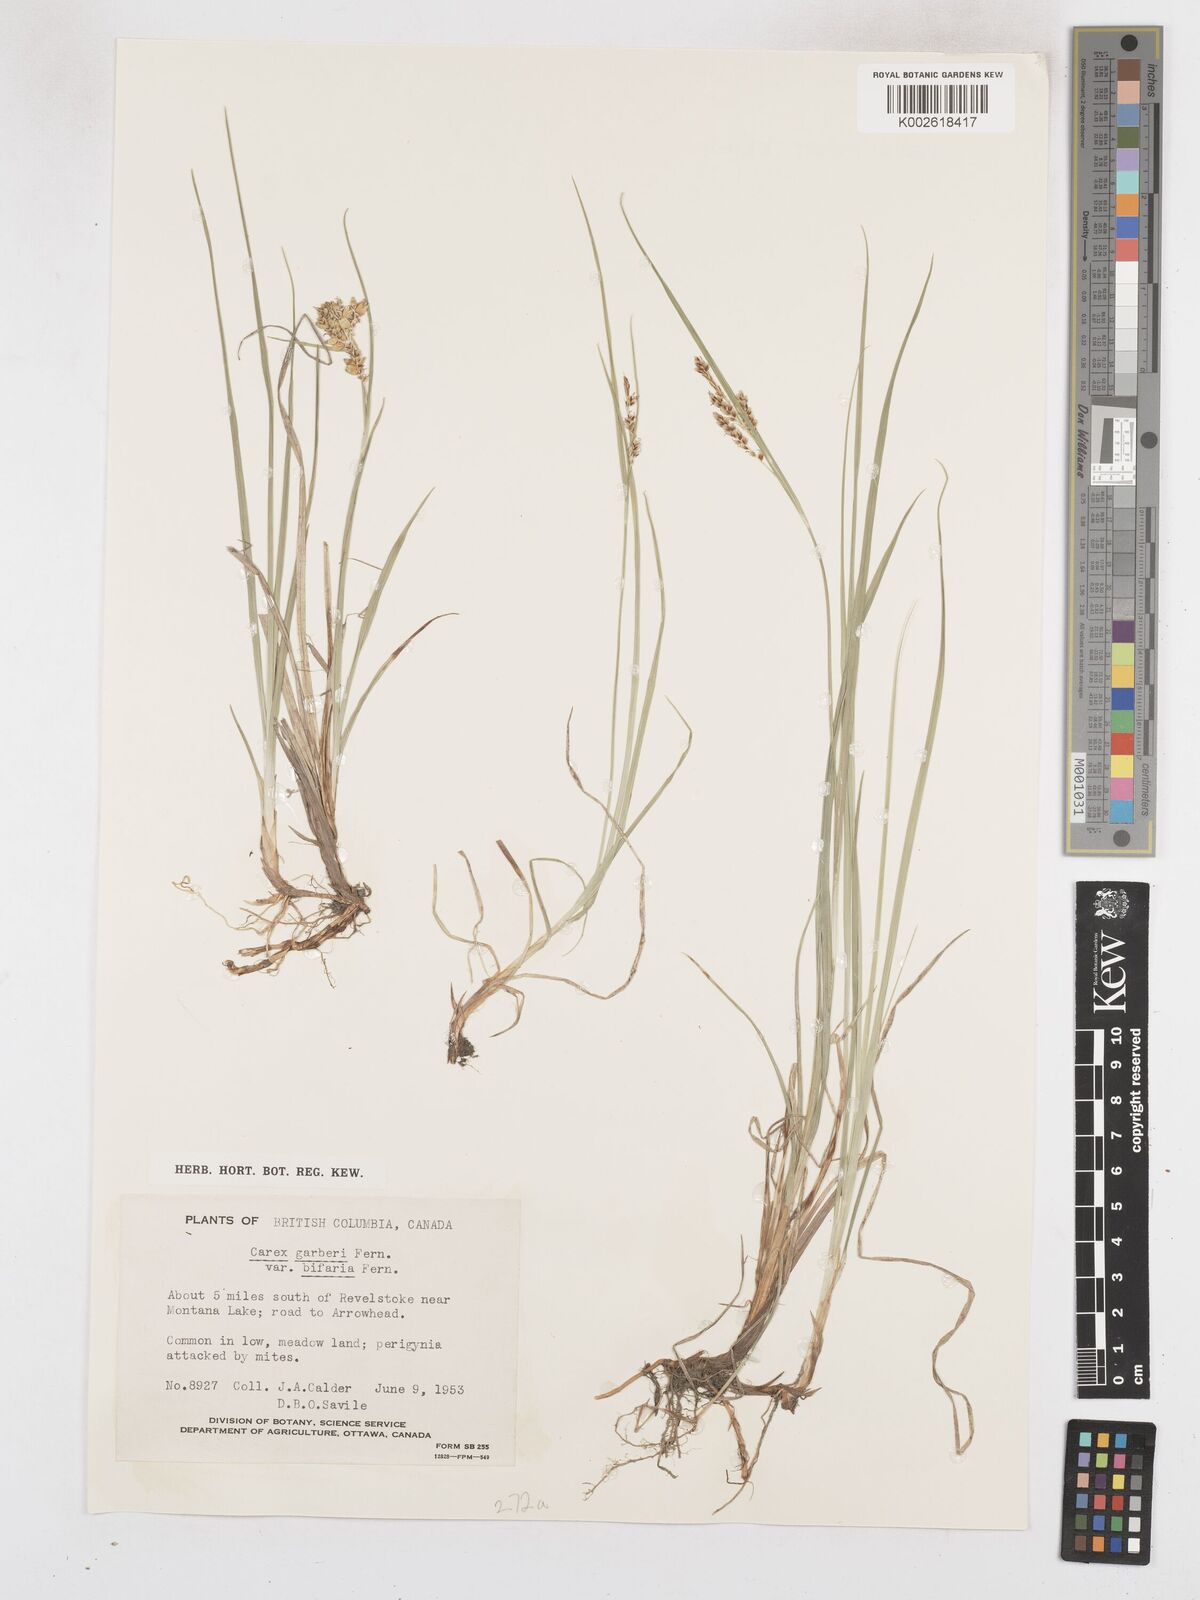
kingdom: Plantae
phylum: Tracheophyta
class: Liliopsida
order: Poales
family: Cyperaceae
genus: Carex
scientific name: Carex garberi
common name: Elk sedge
